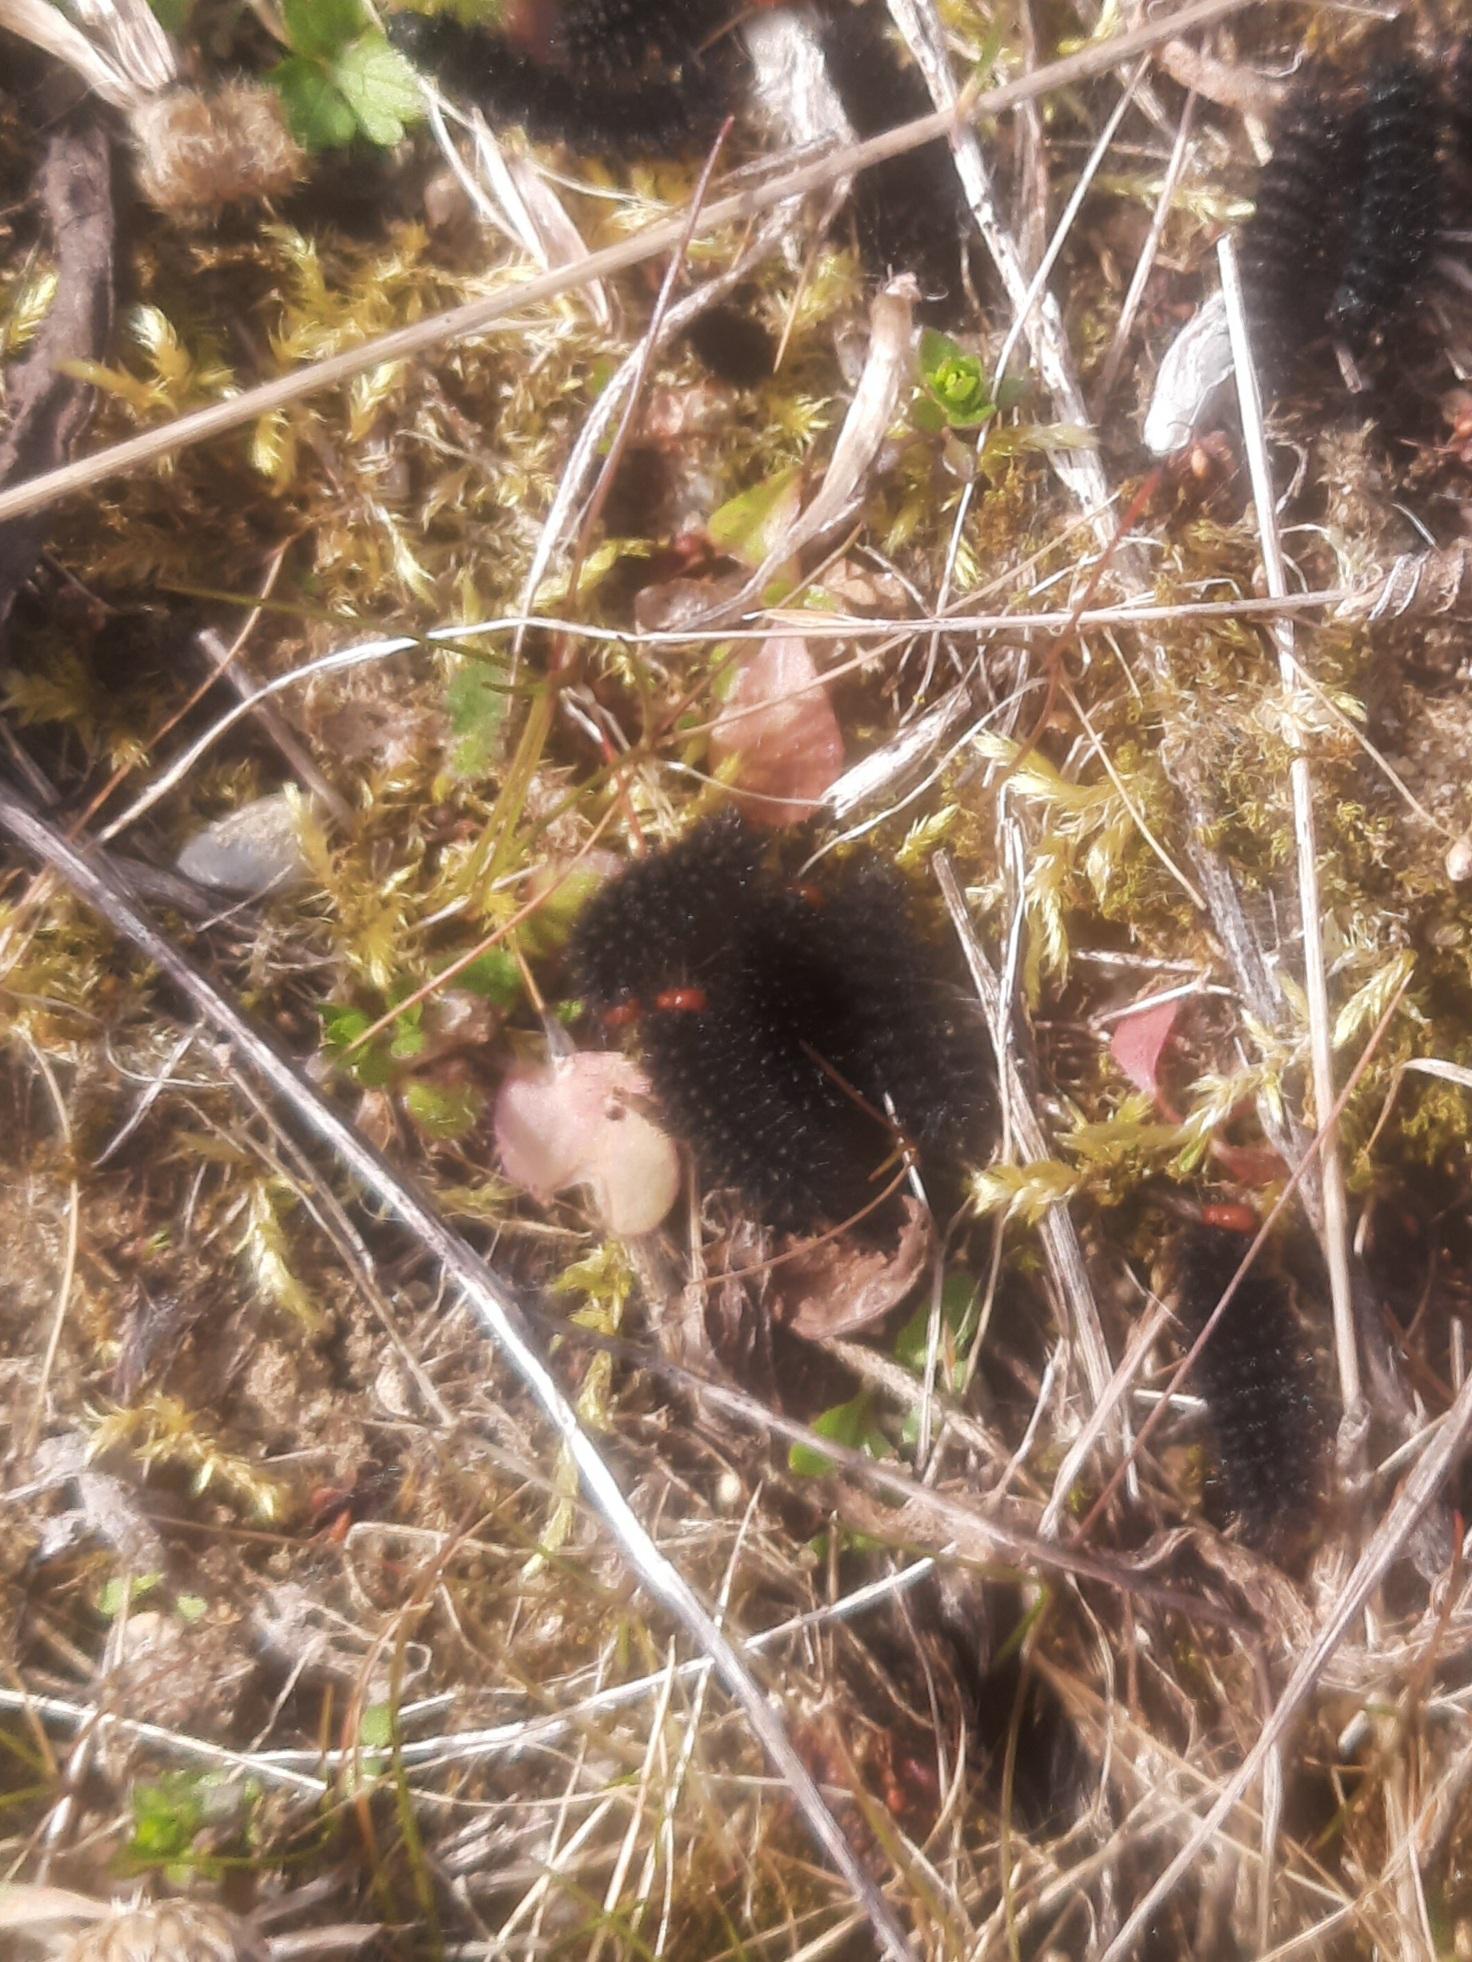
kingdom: Animalia
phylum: Arthropoda
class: Insecta
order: Lepidoptera
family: Nymphalidae
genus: Melitaea
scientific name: Melitaea cinxia
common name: Okkergul pletvinge
